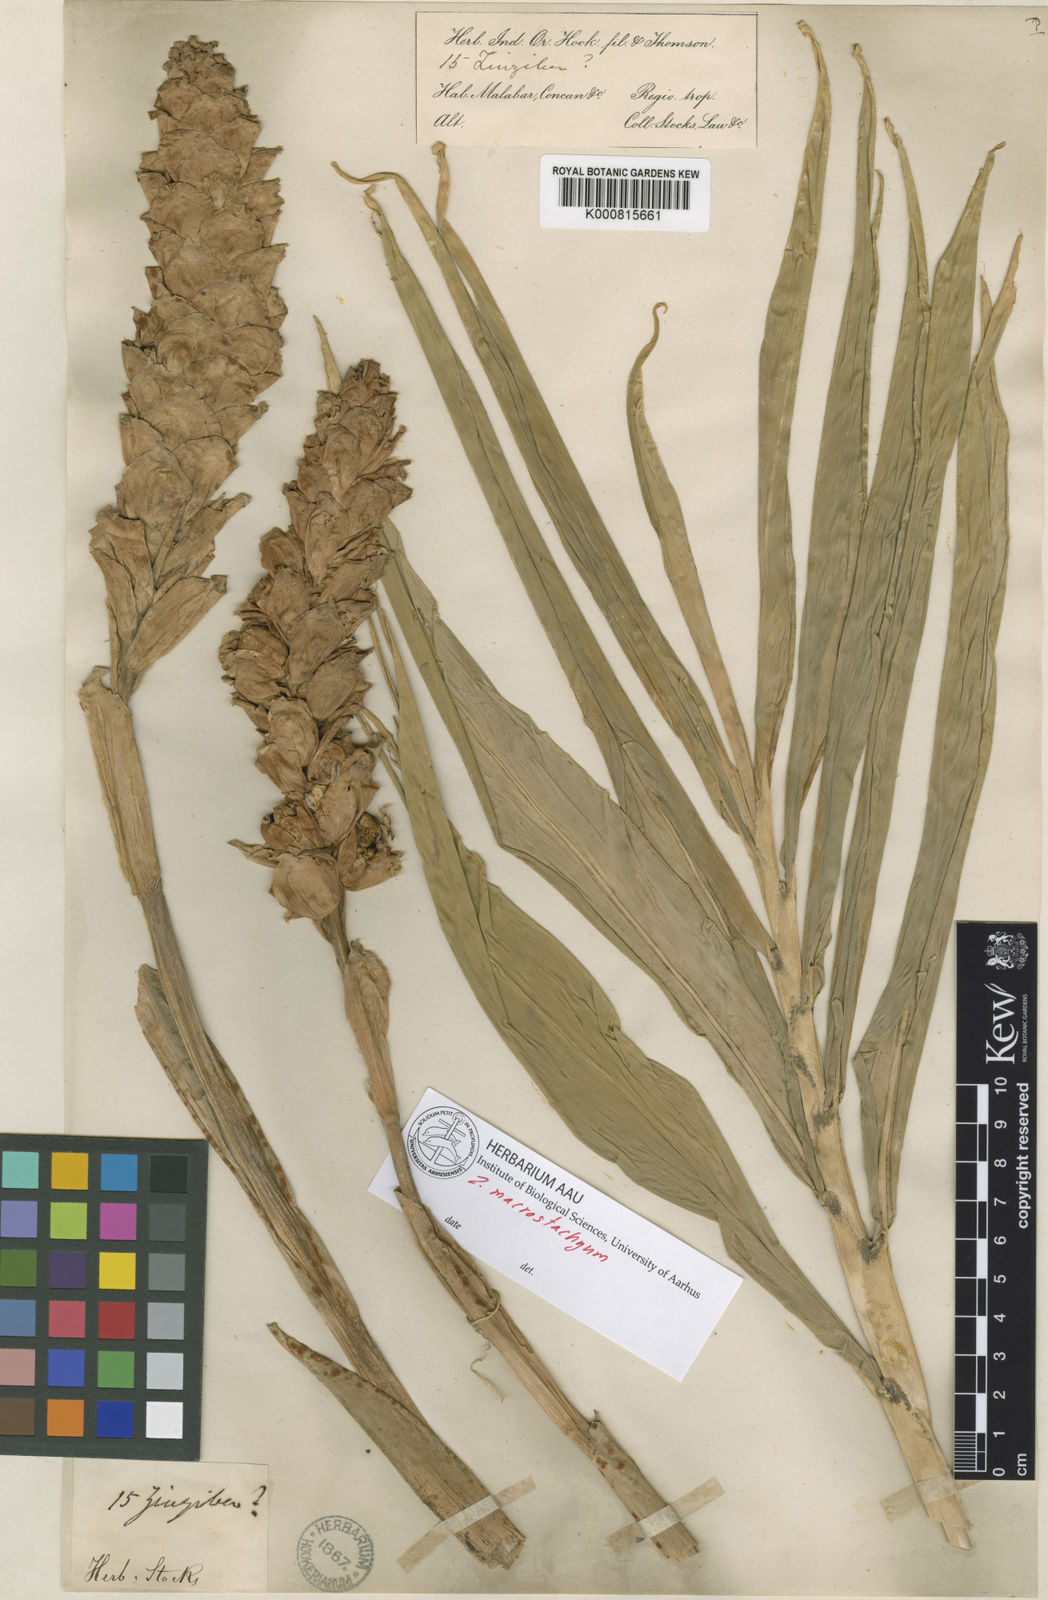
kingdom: Plantae
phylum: Tracheophyta
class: Liliopsida
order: Zingiberales
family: Zingiberaceae
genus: Zingiber
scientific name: Zingiber neesanum
